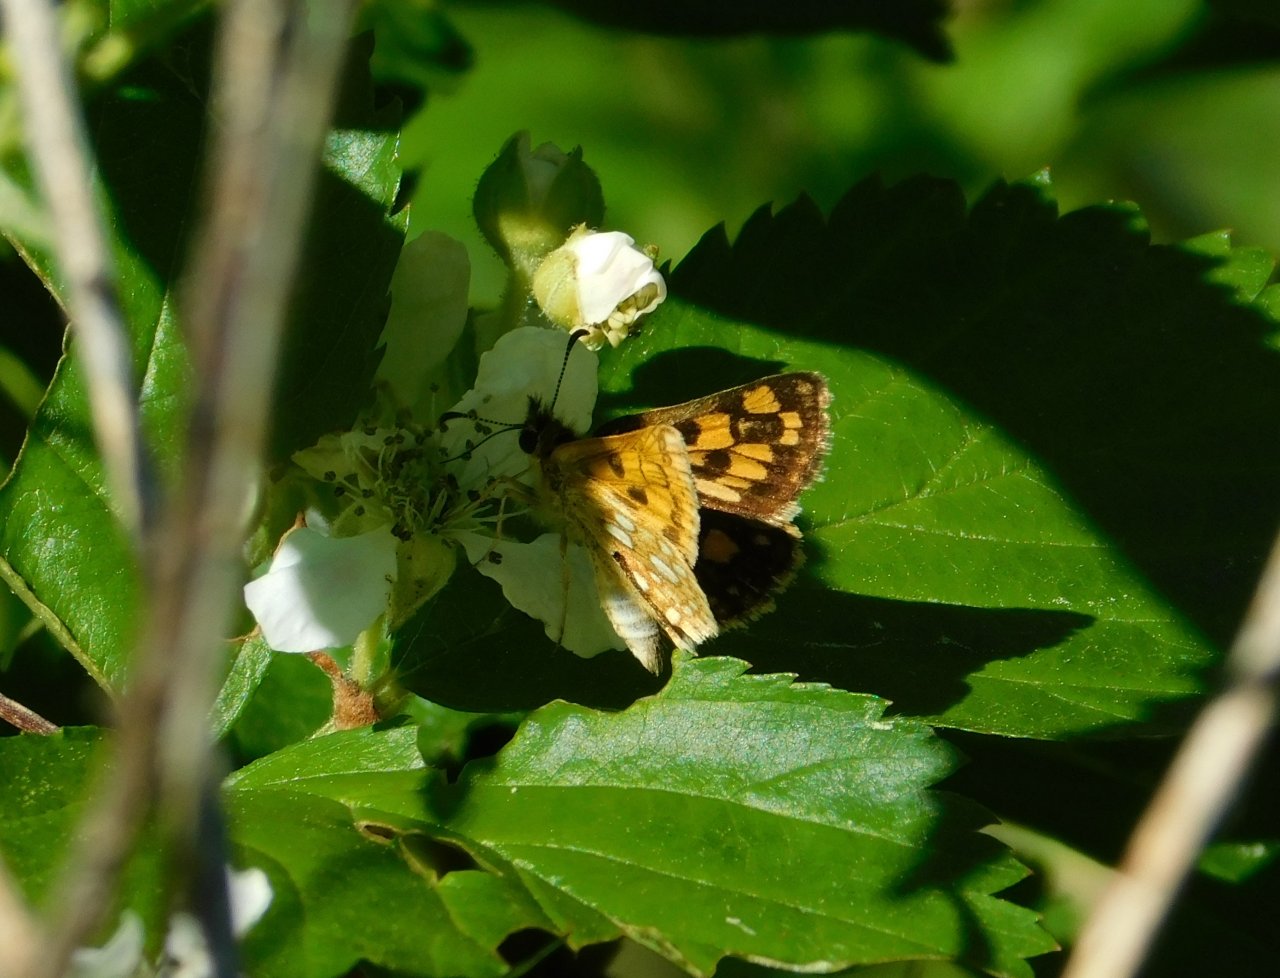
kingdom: Animalia
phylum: Arthropoda
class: Insecta
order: Lepidoptera
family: Hesperiidae
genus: Carterocephalus
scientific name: Carterocephalus palaemon
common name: Chequered Skipper
